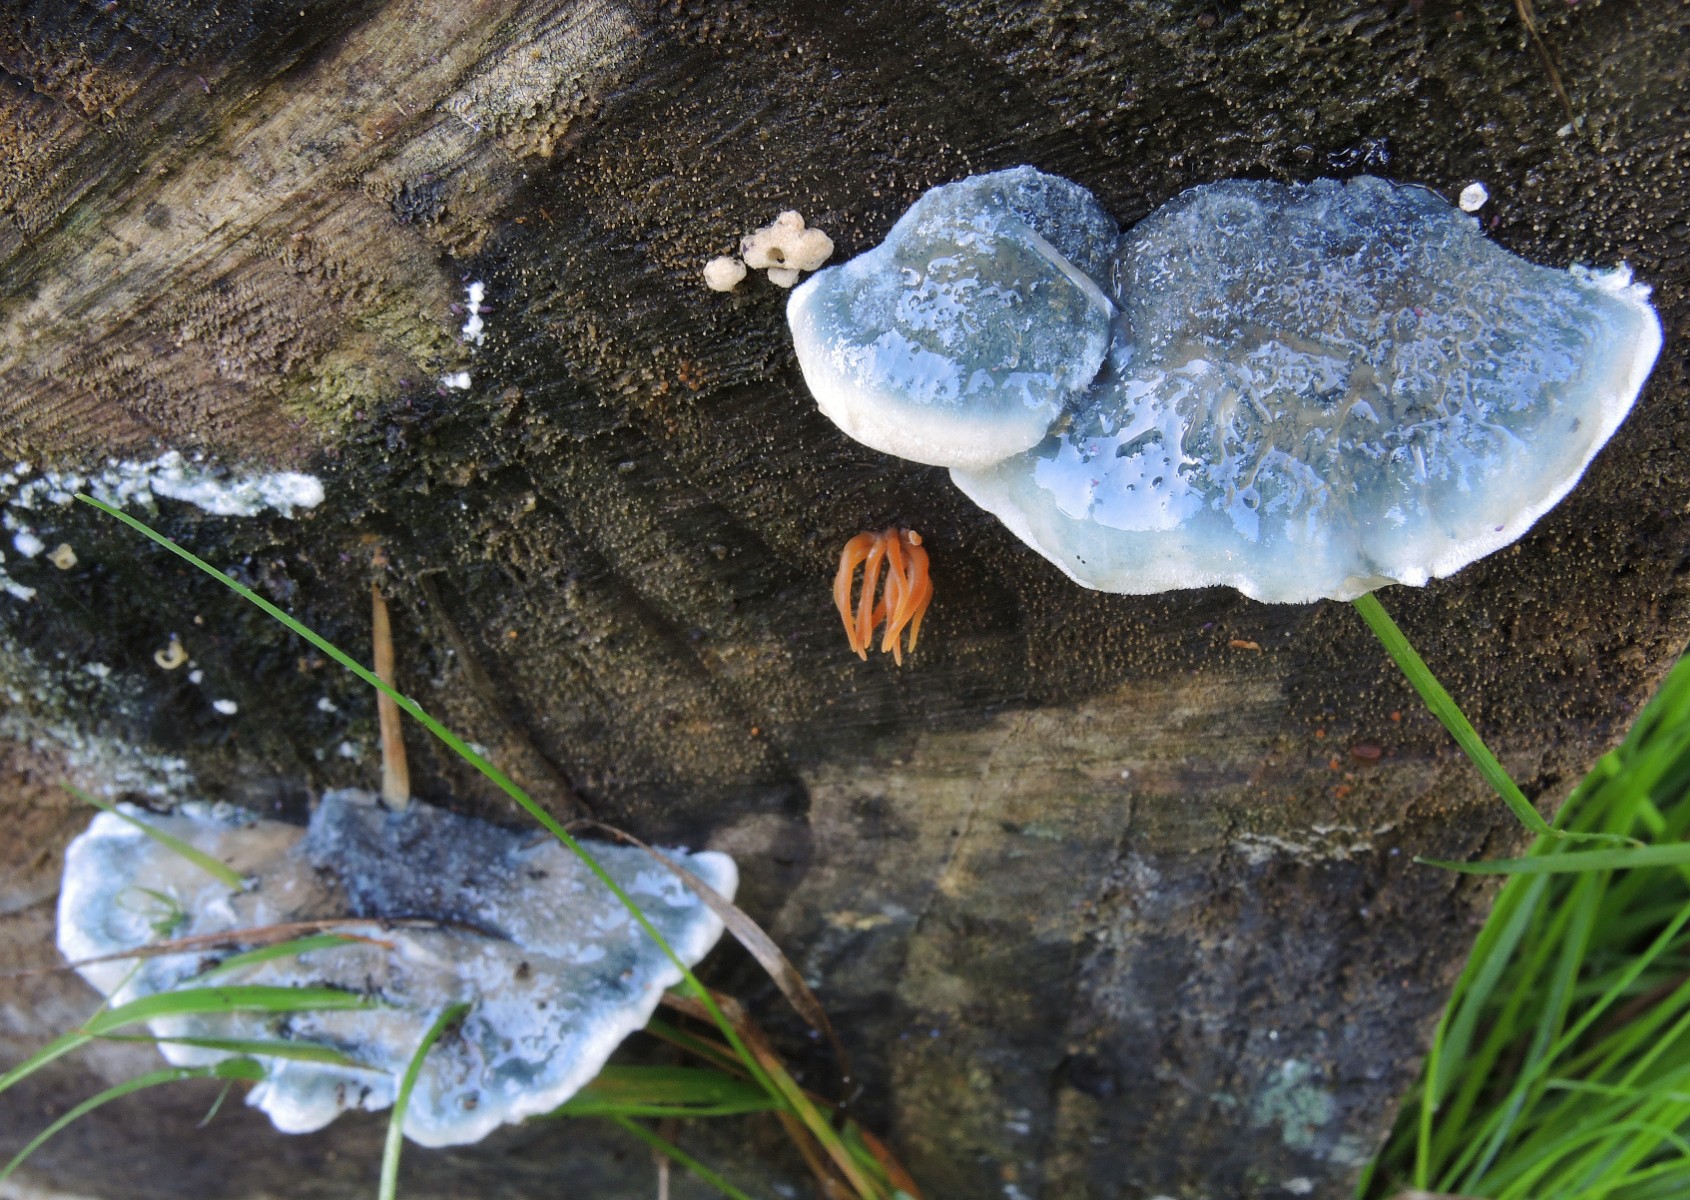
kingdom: Fungi
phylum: Basidiomycota
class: Agaricomycetes
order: Polyporales
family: Polyporaceae
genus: Cyanosporus
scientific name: Cyanosporus caesius
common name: blålig kødporesvamp
